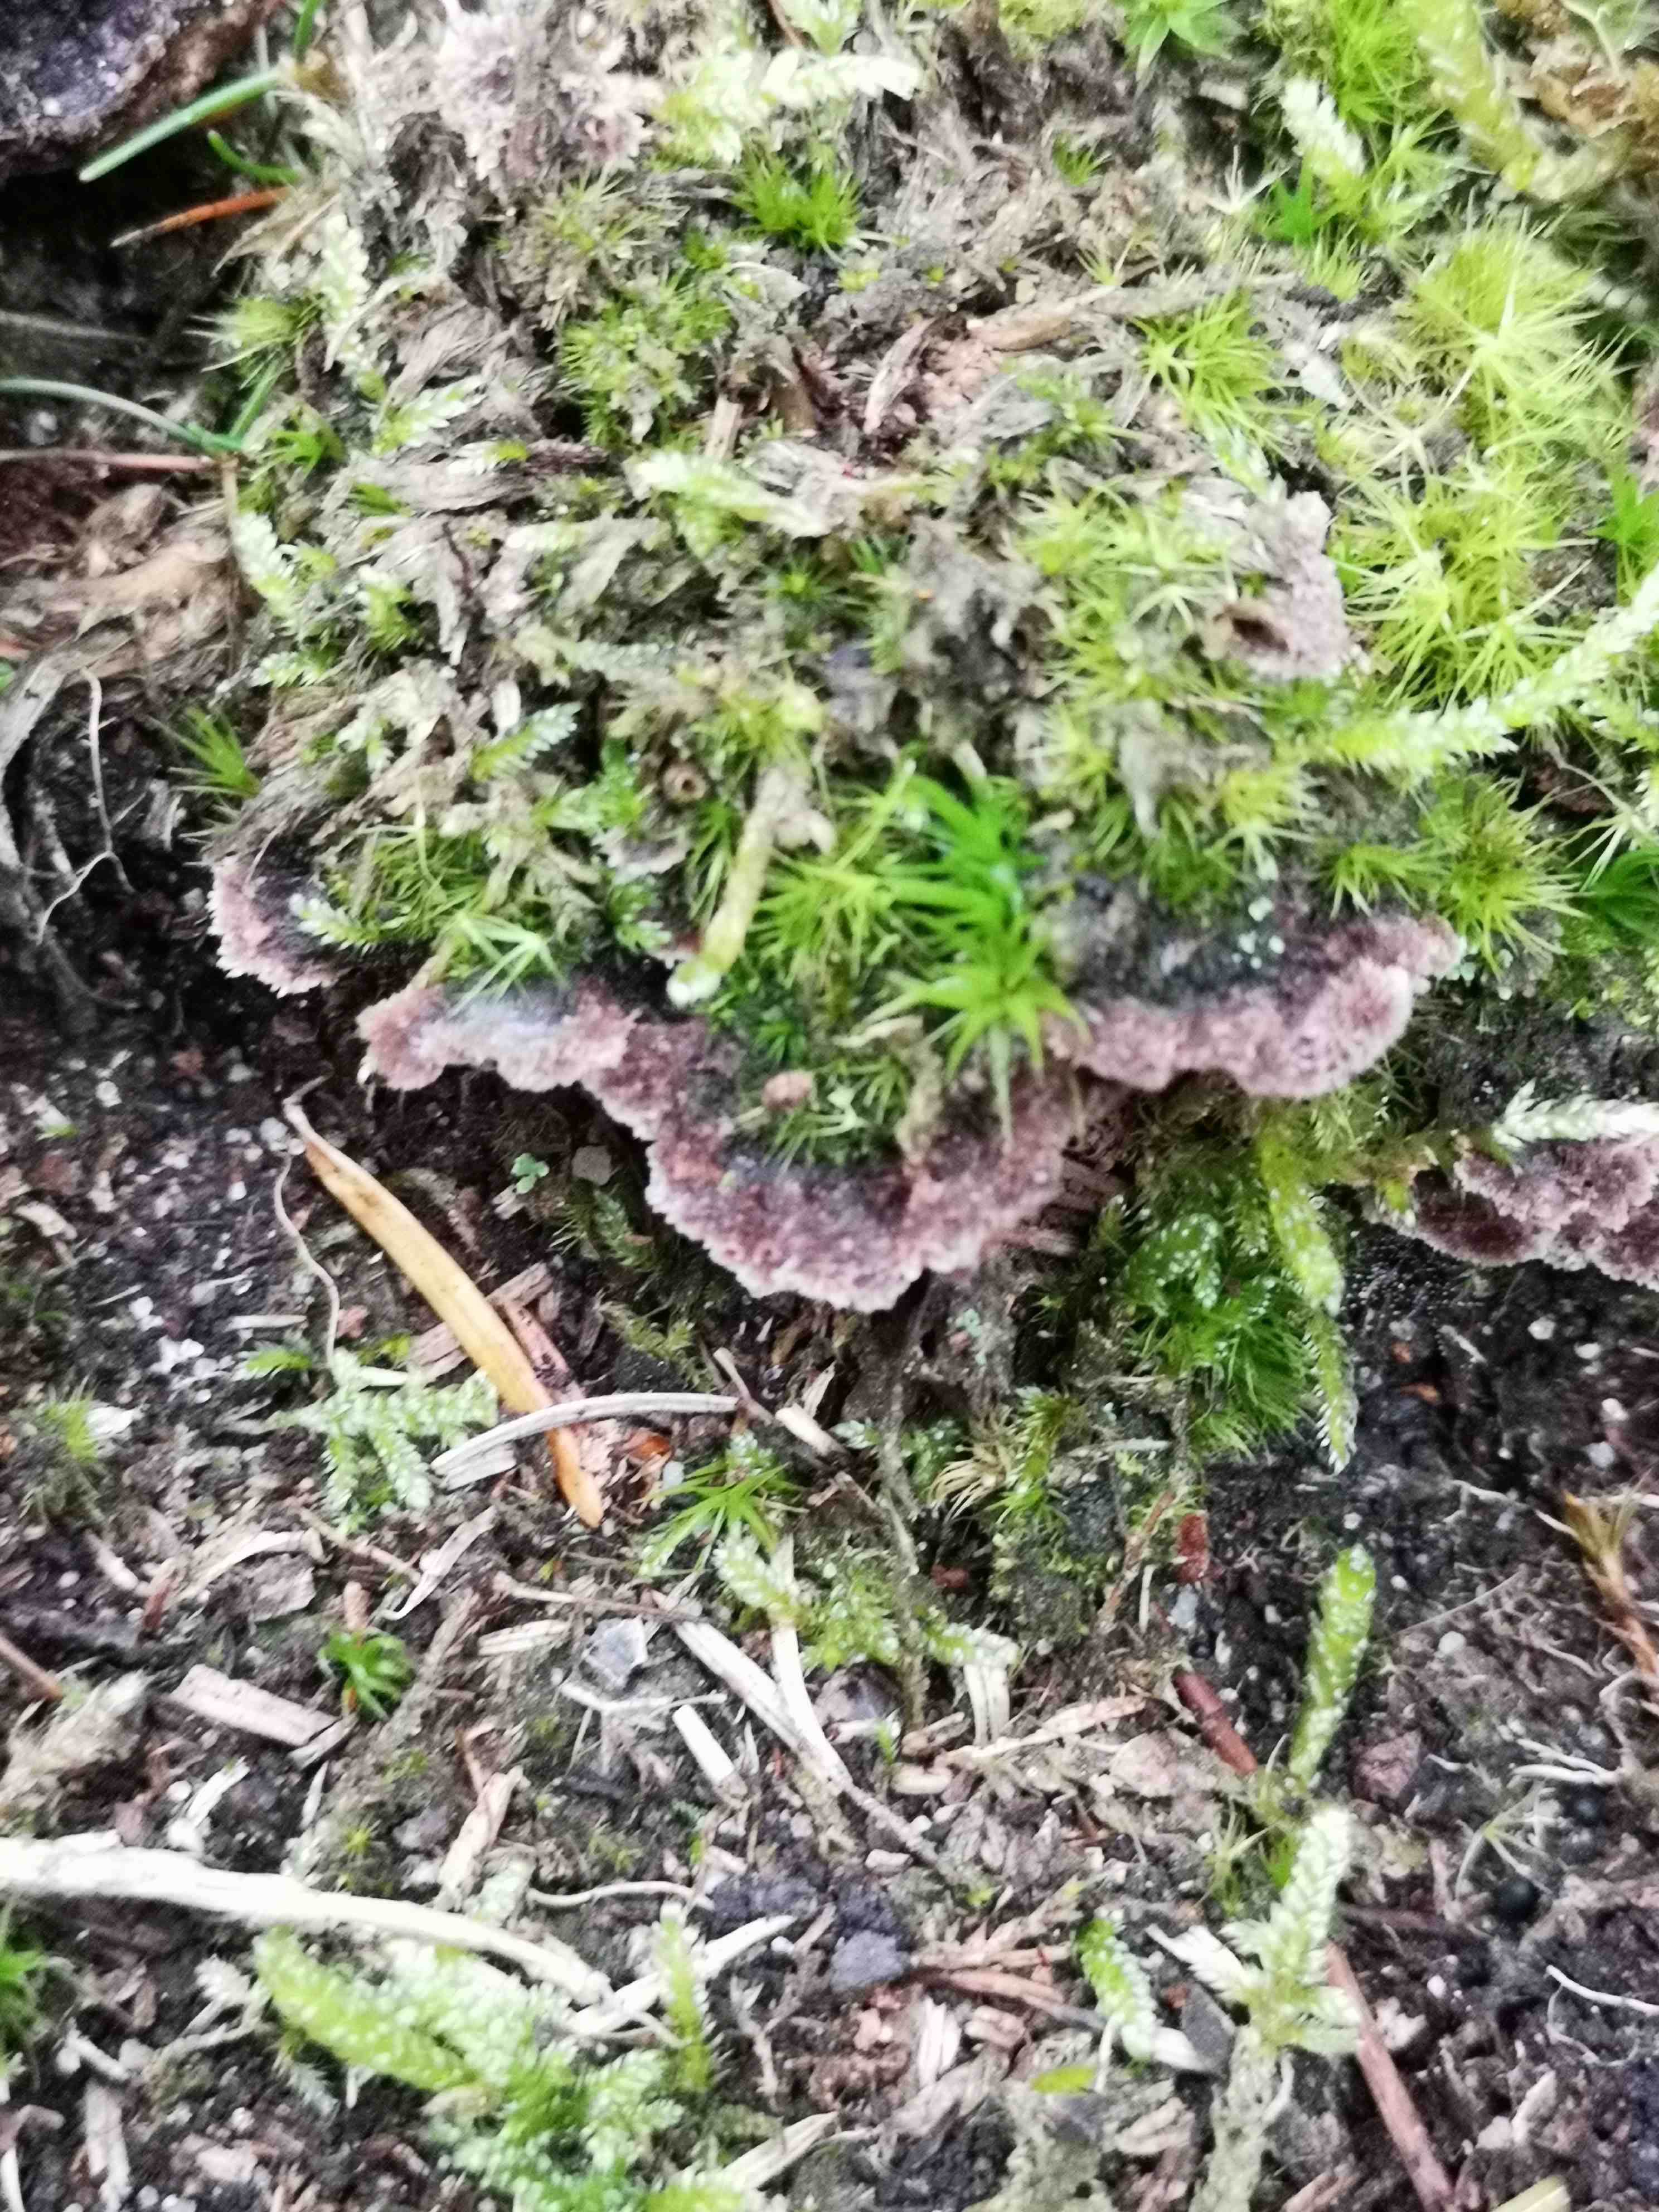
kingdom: Fungi
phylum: Basidiomycota
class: Agaricomycetes
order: Thelephorales
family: Thelephoraceae
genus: Thelephora
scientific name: Thelephora terrestris
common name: fliget frynsesvamp
